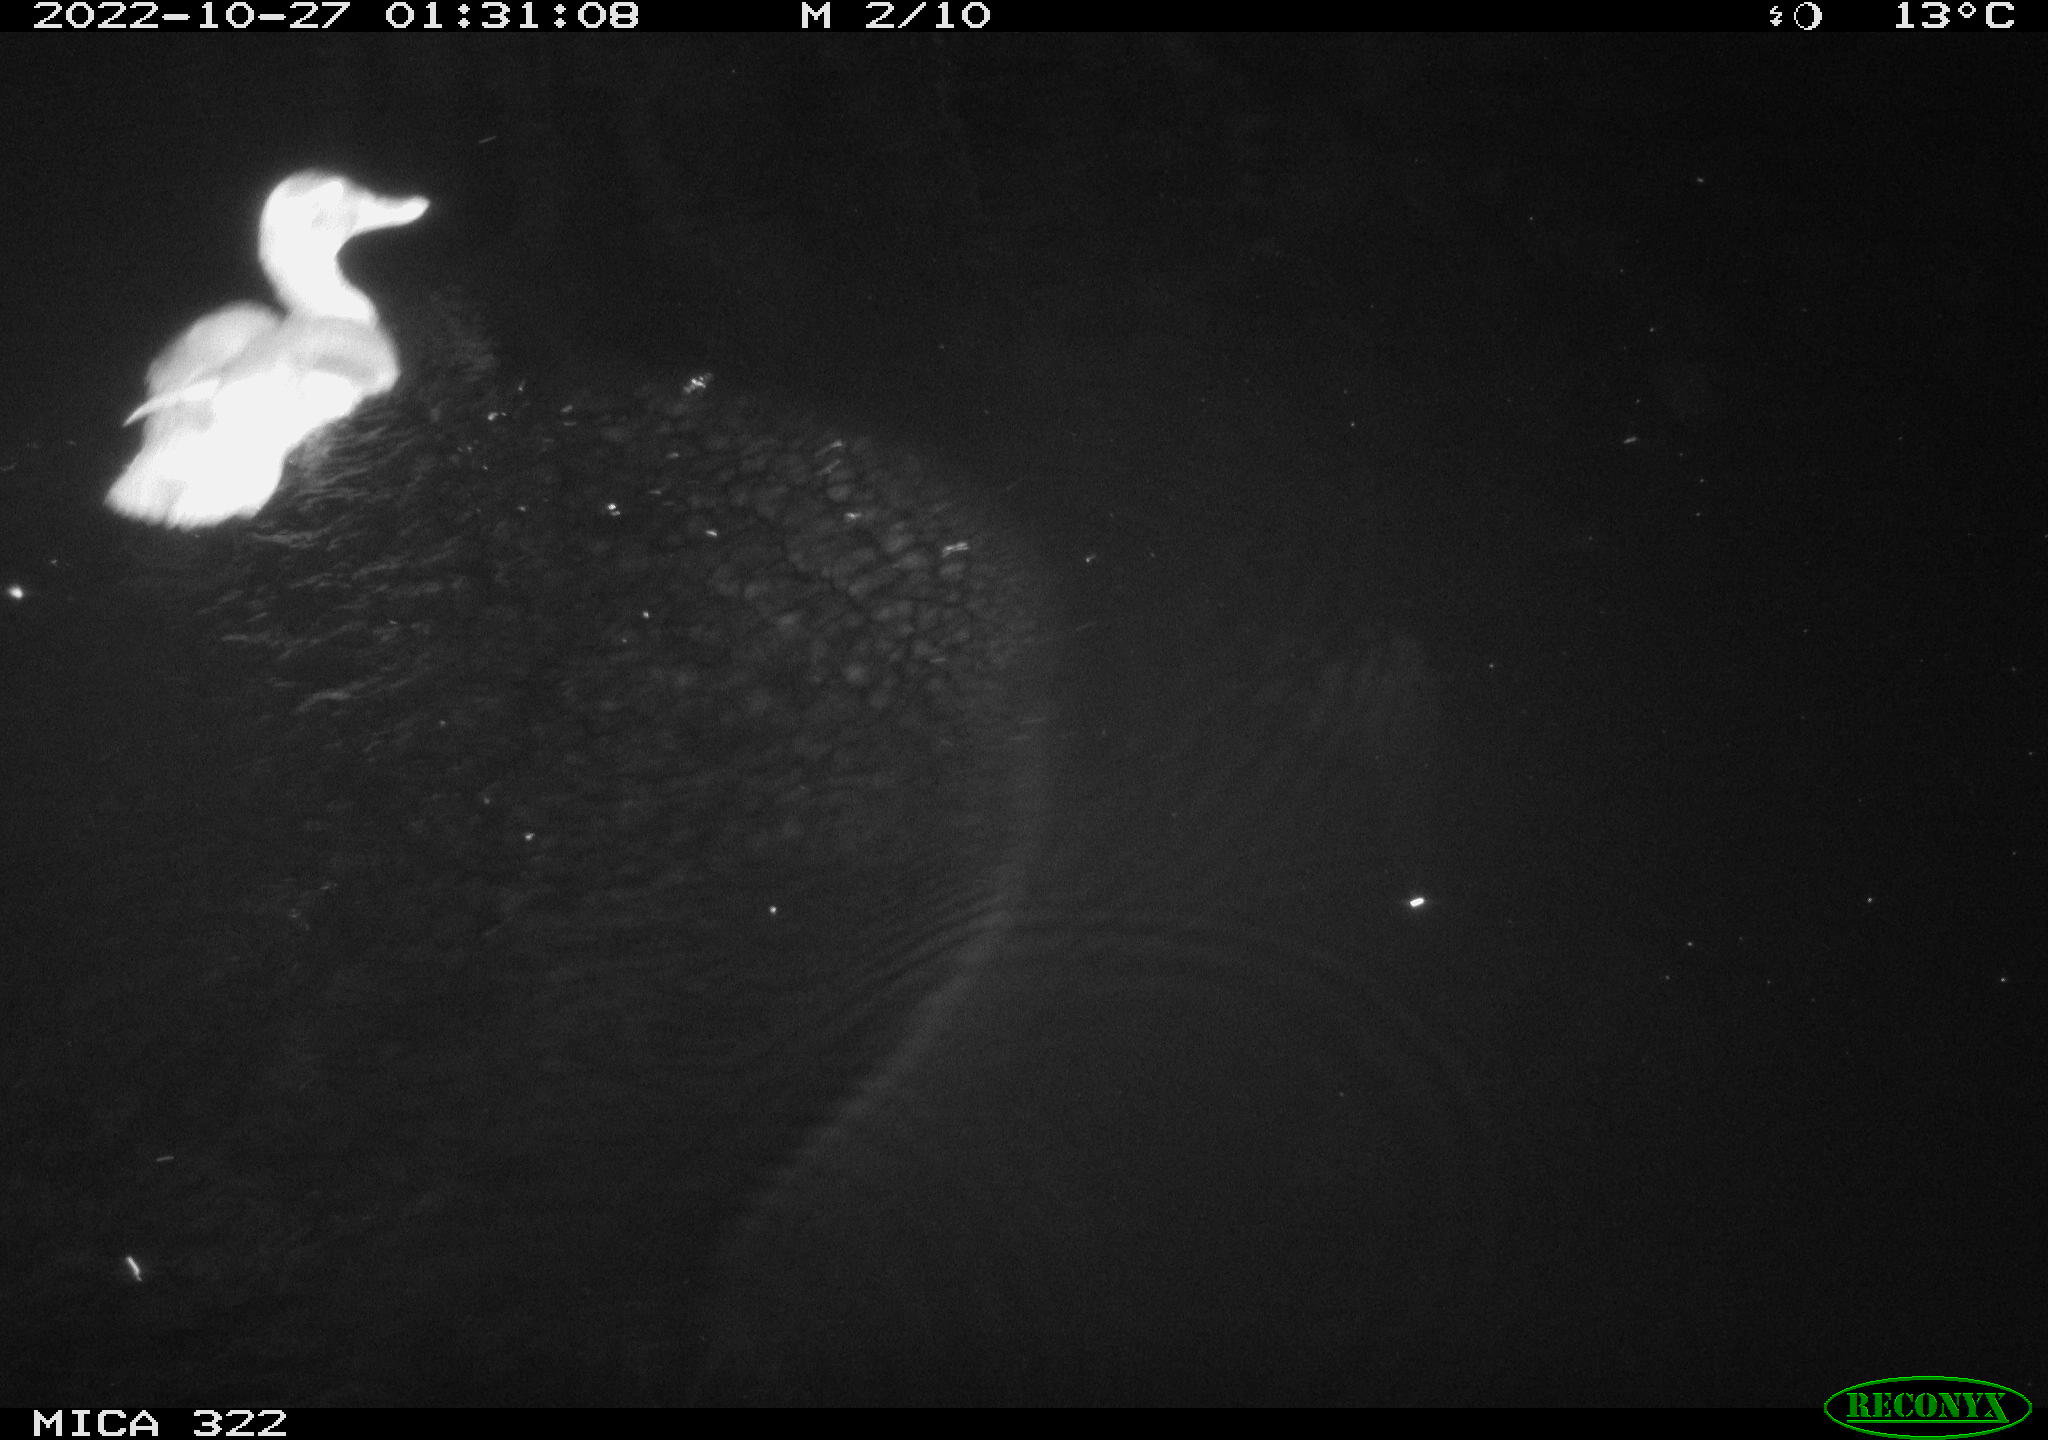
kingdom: Animalia
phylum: Chordata
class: Aves
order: Anseriformes
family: Anatidae
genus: Anas
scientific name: Anas
